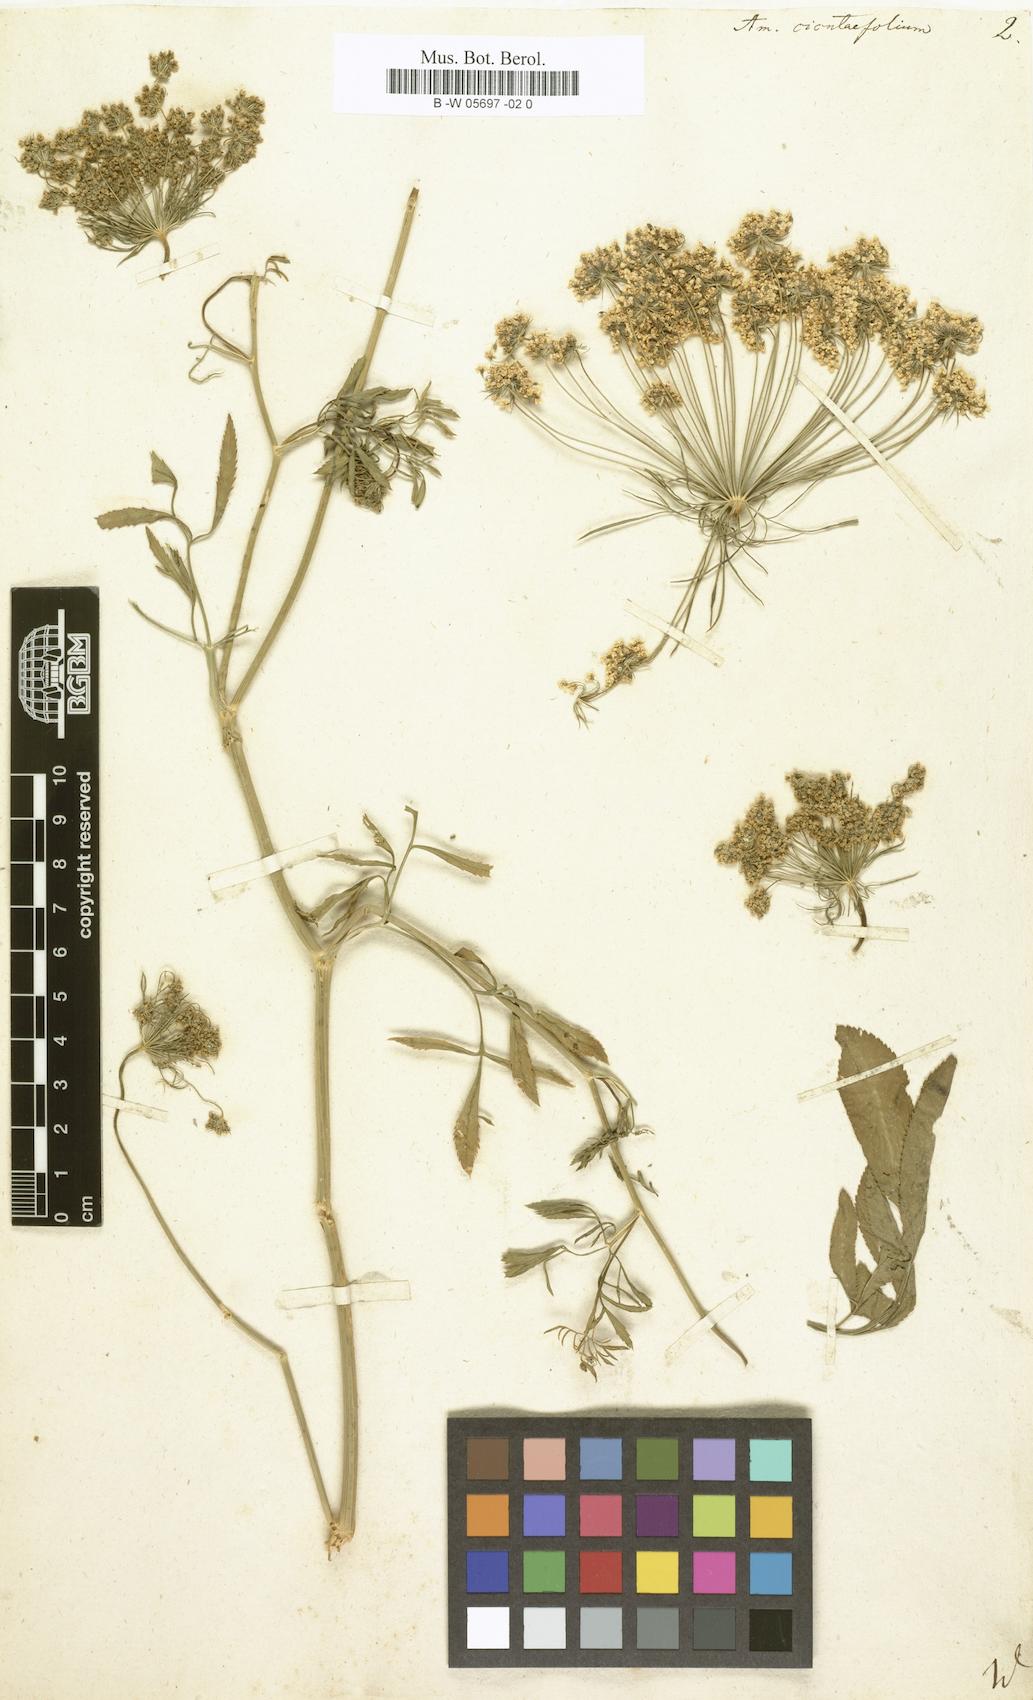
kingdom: Plantae
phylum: Tracheophyta
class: Magnoliopsida
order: Apiales
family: Apiaceae
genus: Ammi
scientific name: Ammi majus
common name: Bullwort
